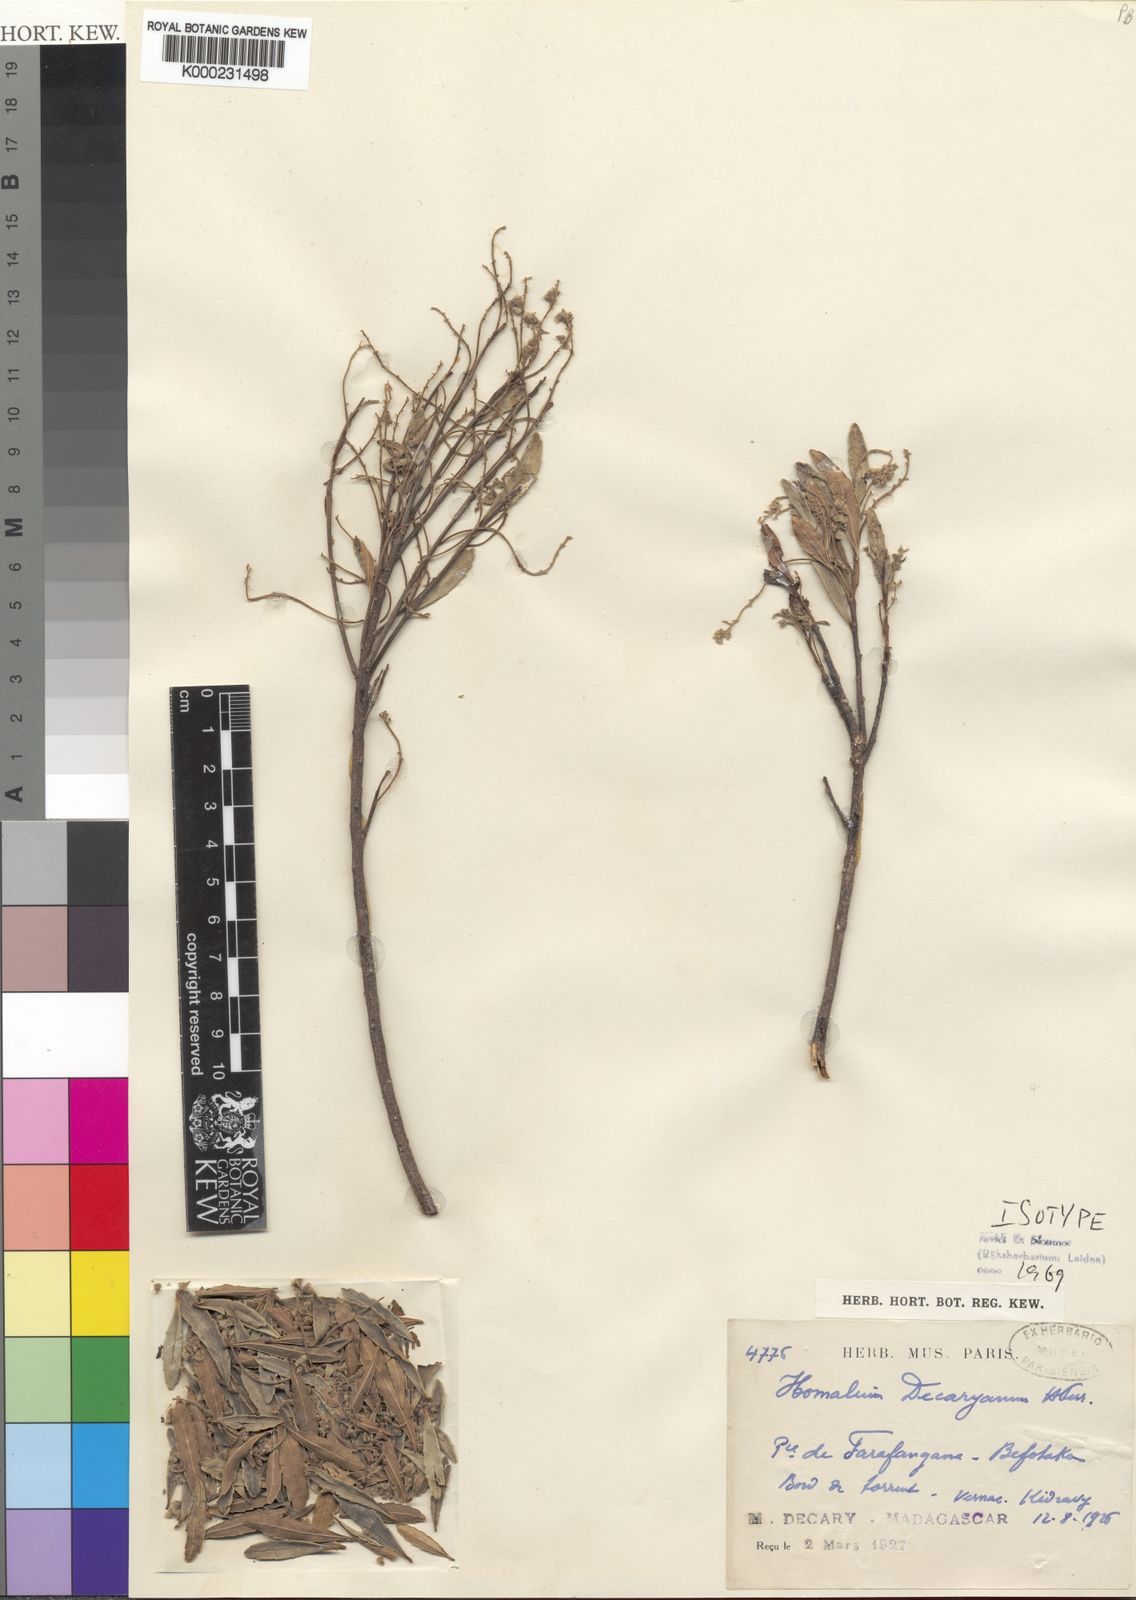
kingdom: Plantae
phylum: Tracheophyta
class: Magnoliopsida
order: Malpighiales
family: Salicaceae
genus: Homalium
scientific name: Homalium decaryanum
